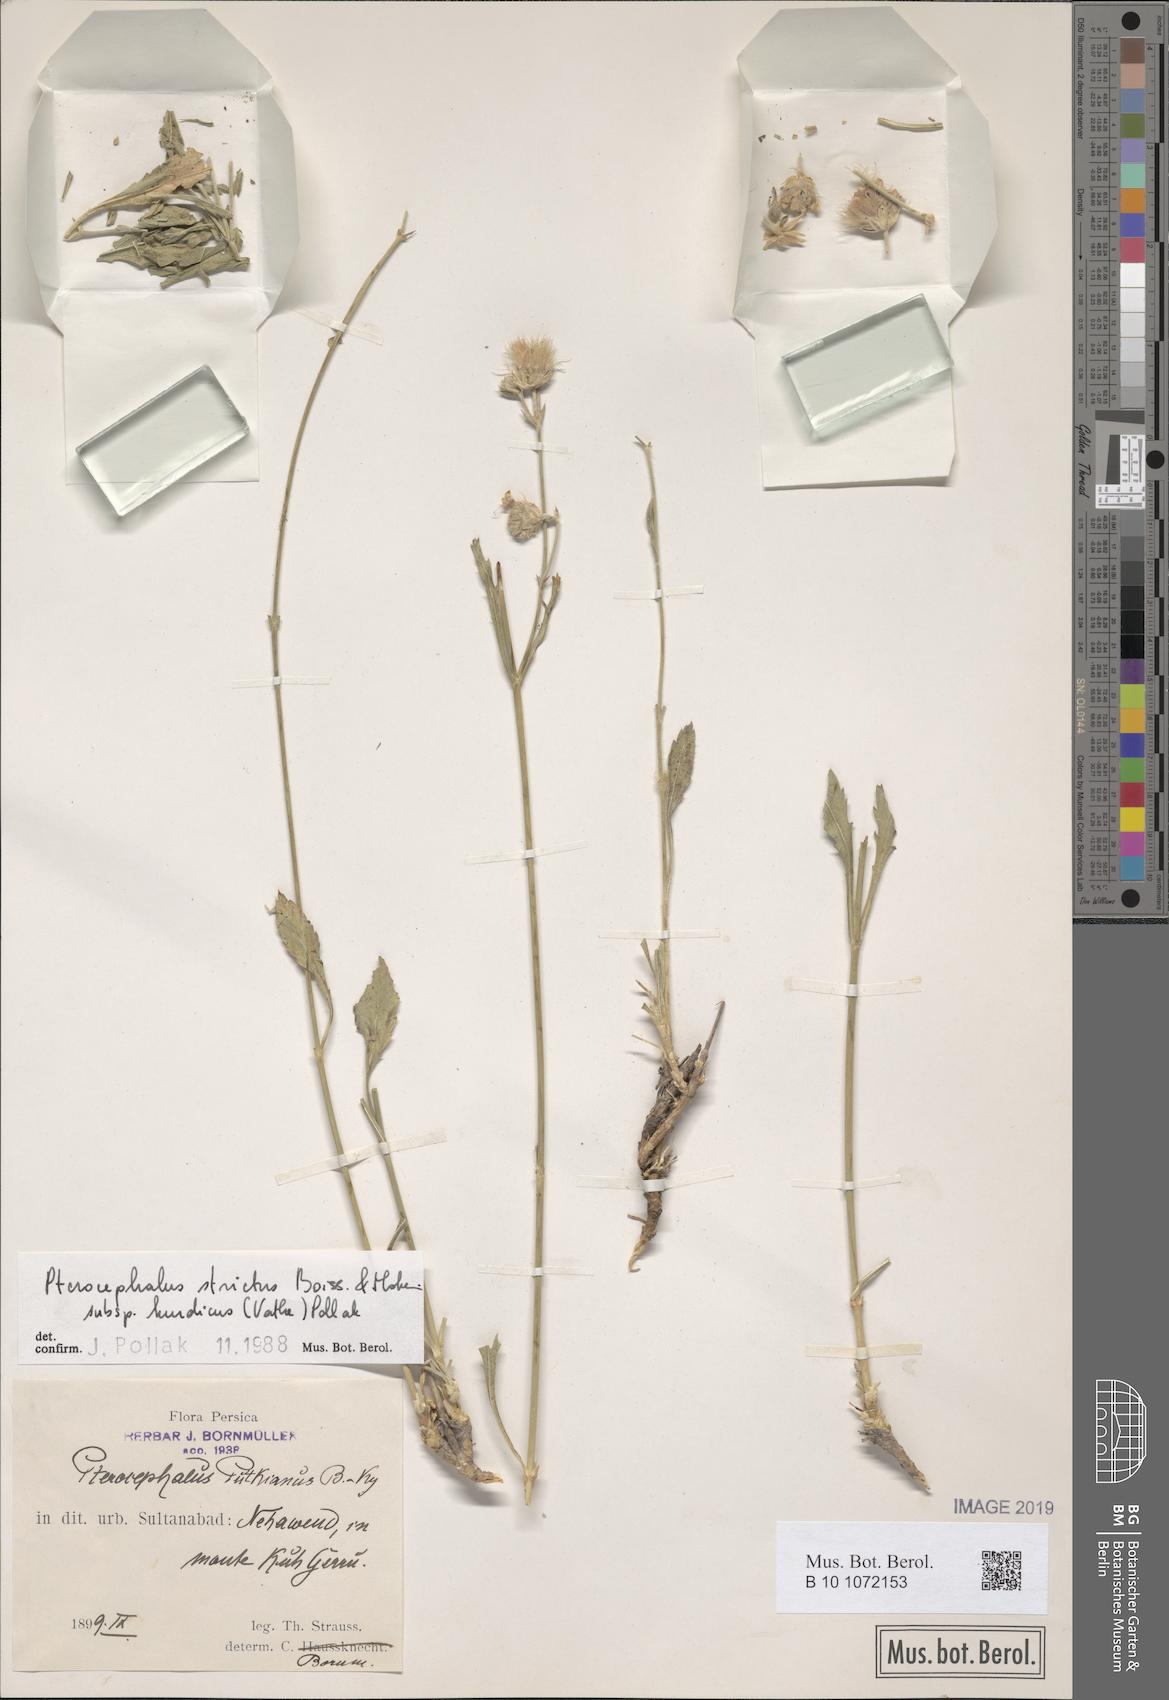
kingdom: Plantae
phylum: Tracheophyta
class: Magnoliopsida
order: Dipsacales
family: Caprifoliaceae
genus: Pterocephalus
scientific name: Pterocephalus strictus
